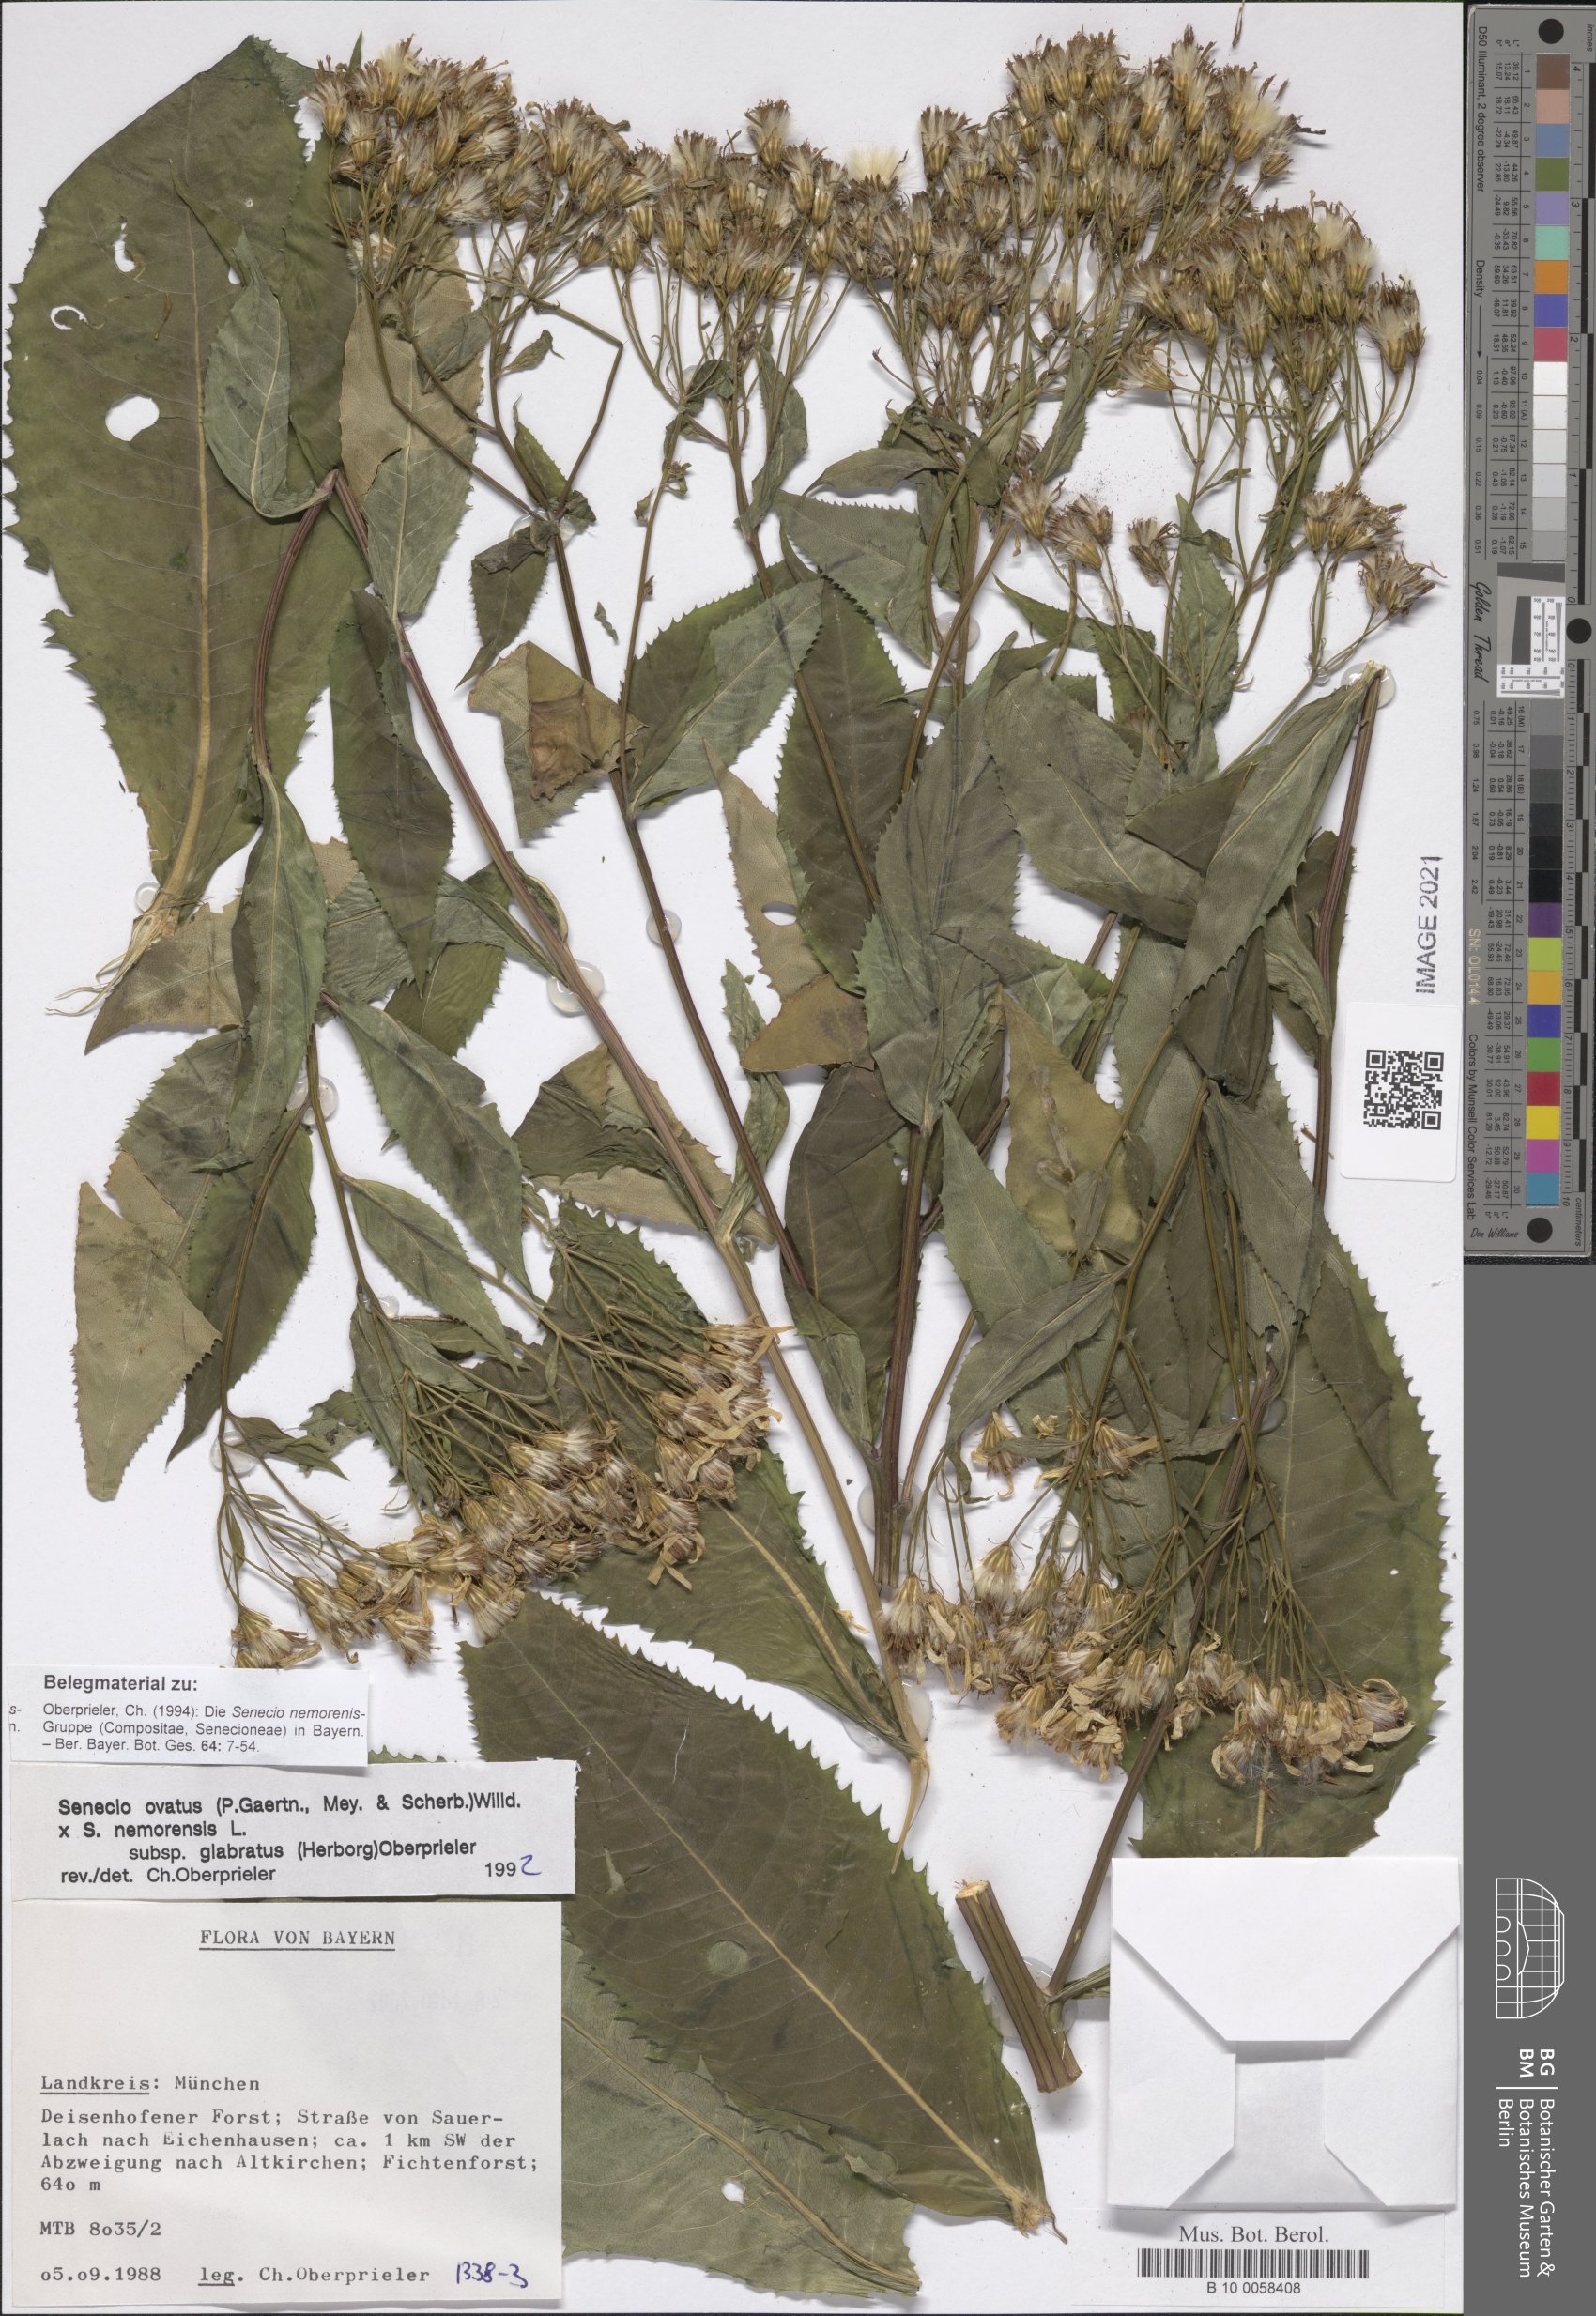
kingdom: Plantae
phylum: Tracheophyta
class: Magnoliopsida
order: Asterales
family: Asteraceae
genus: Senecio
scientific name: Senecio ovatus
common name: Wood ragwort
